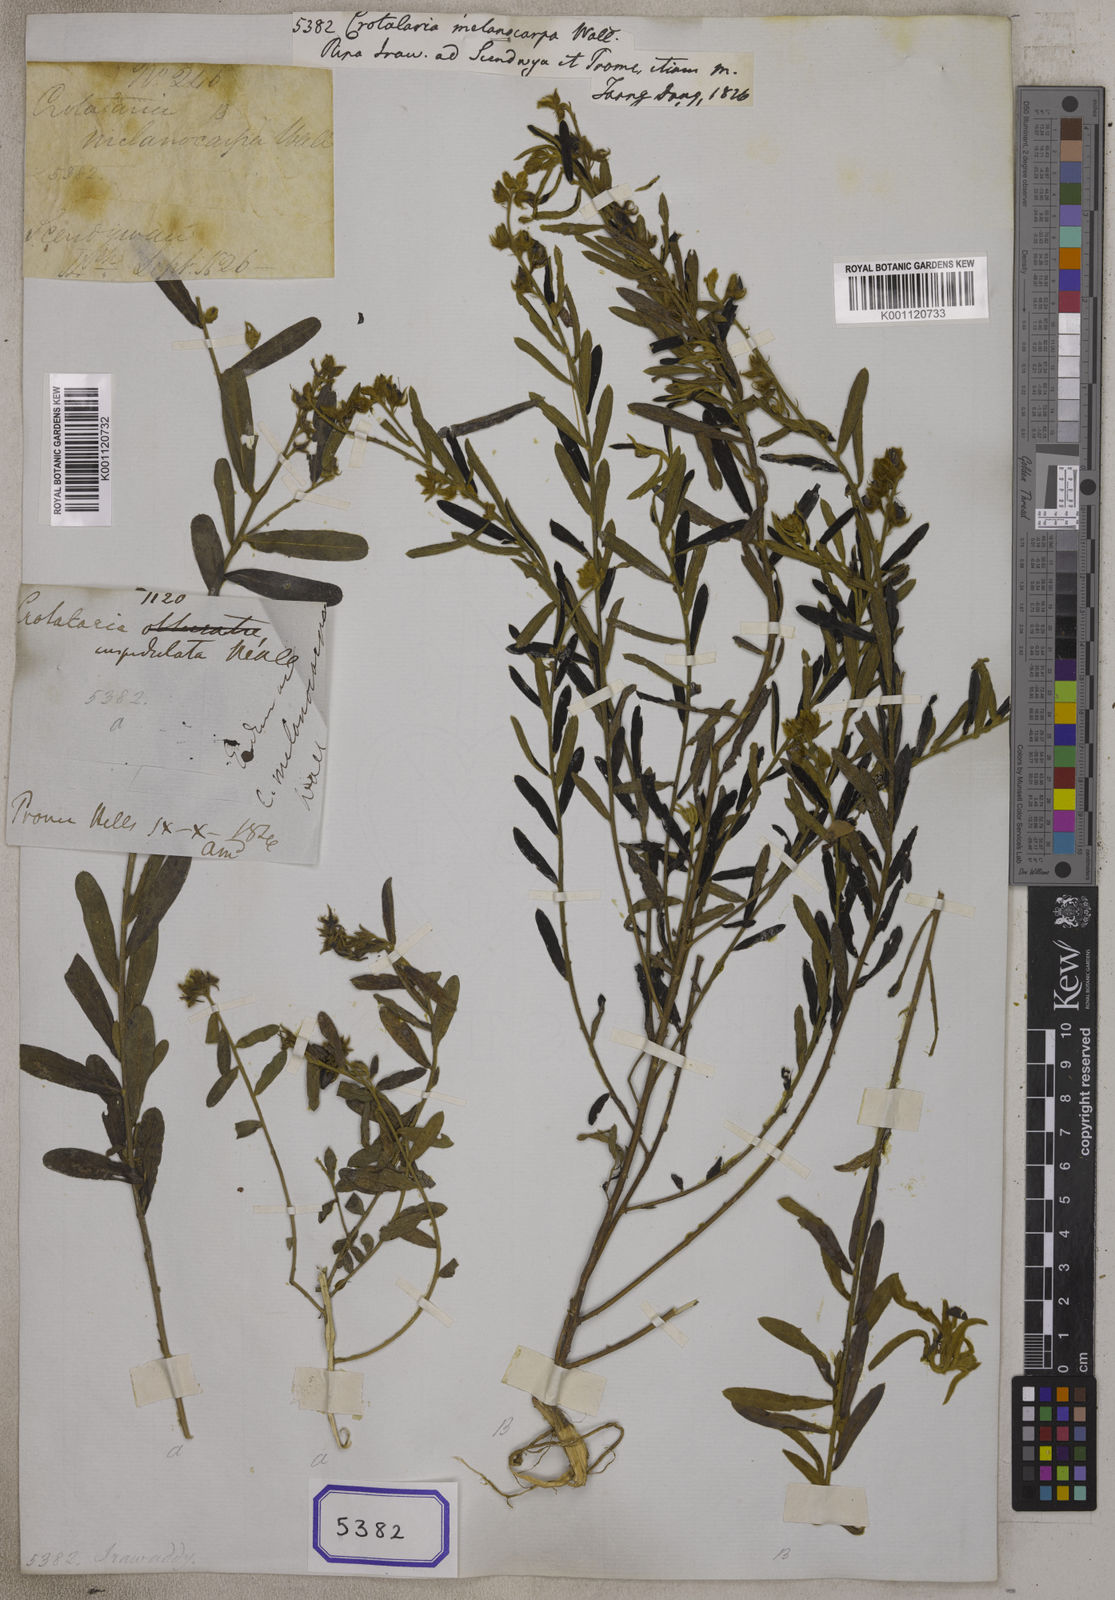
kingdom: Plantae
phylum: Tracheophyta
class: Magnoliopsida
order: Fabales
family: Fabaceae
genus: Crotalaria
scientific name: Crotalaria
